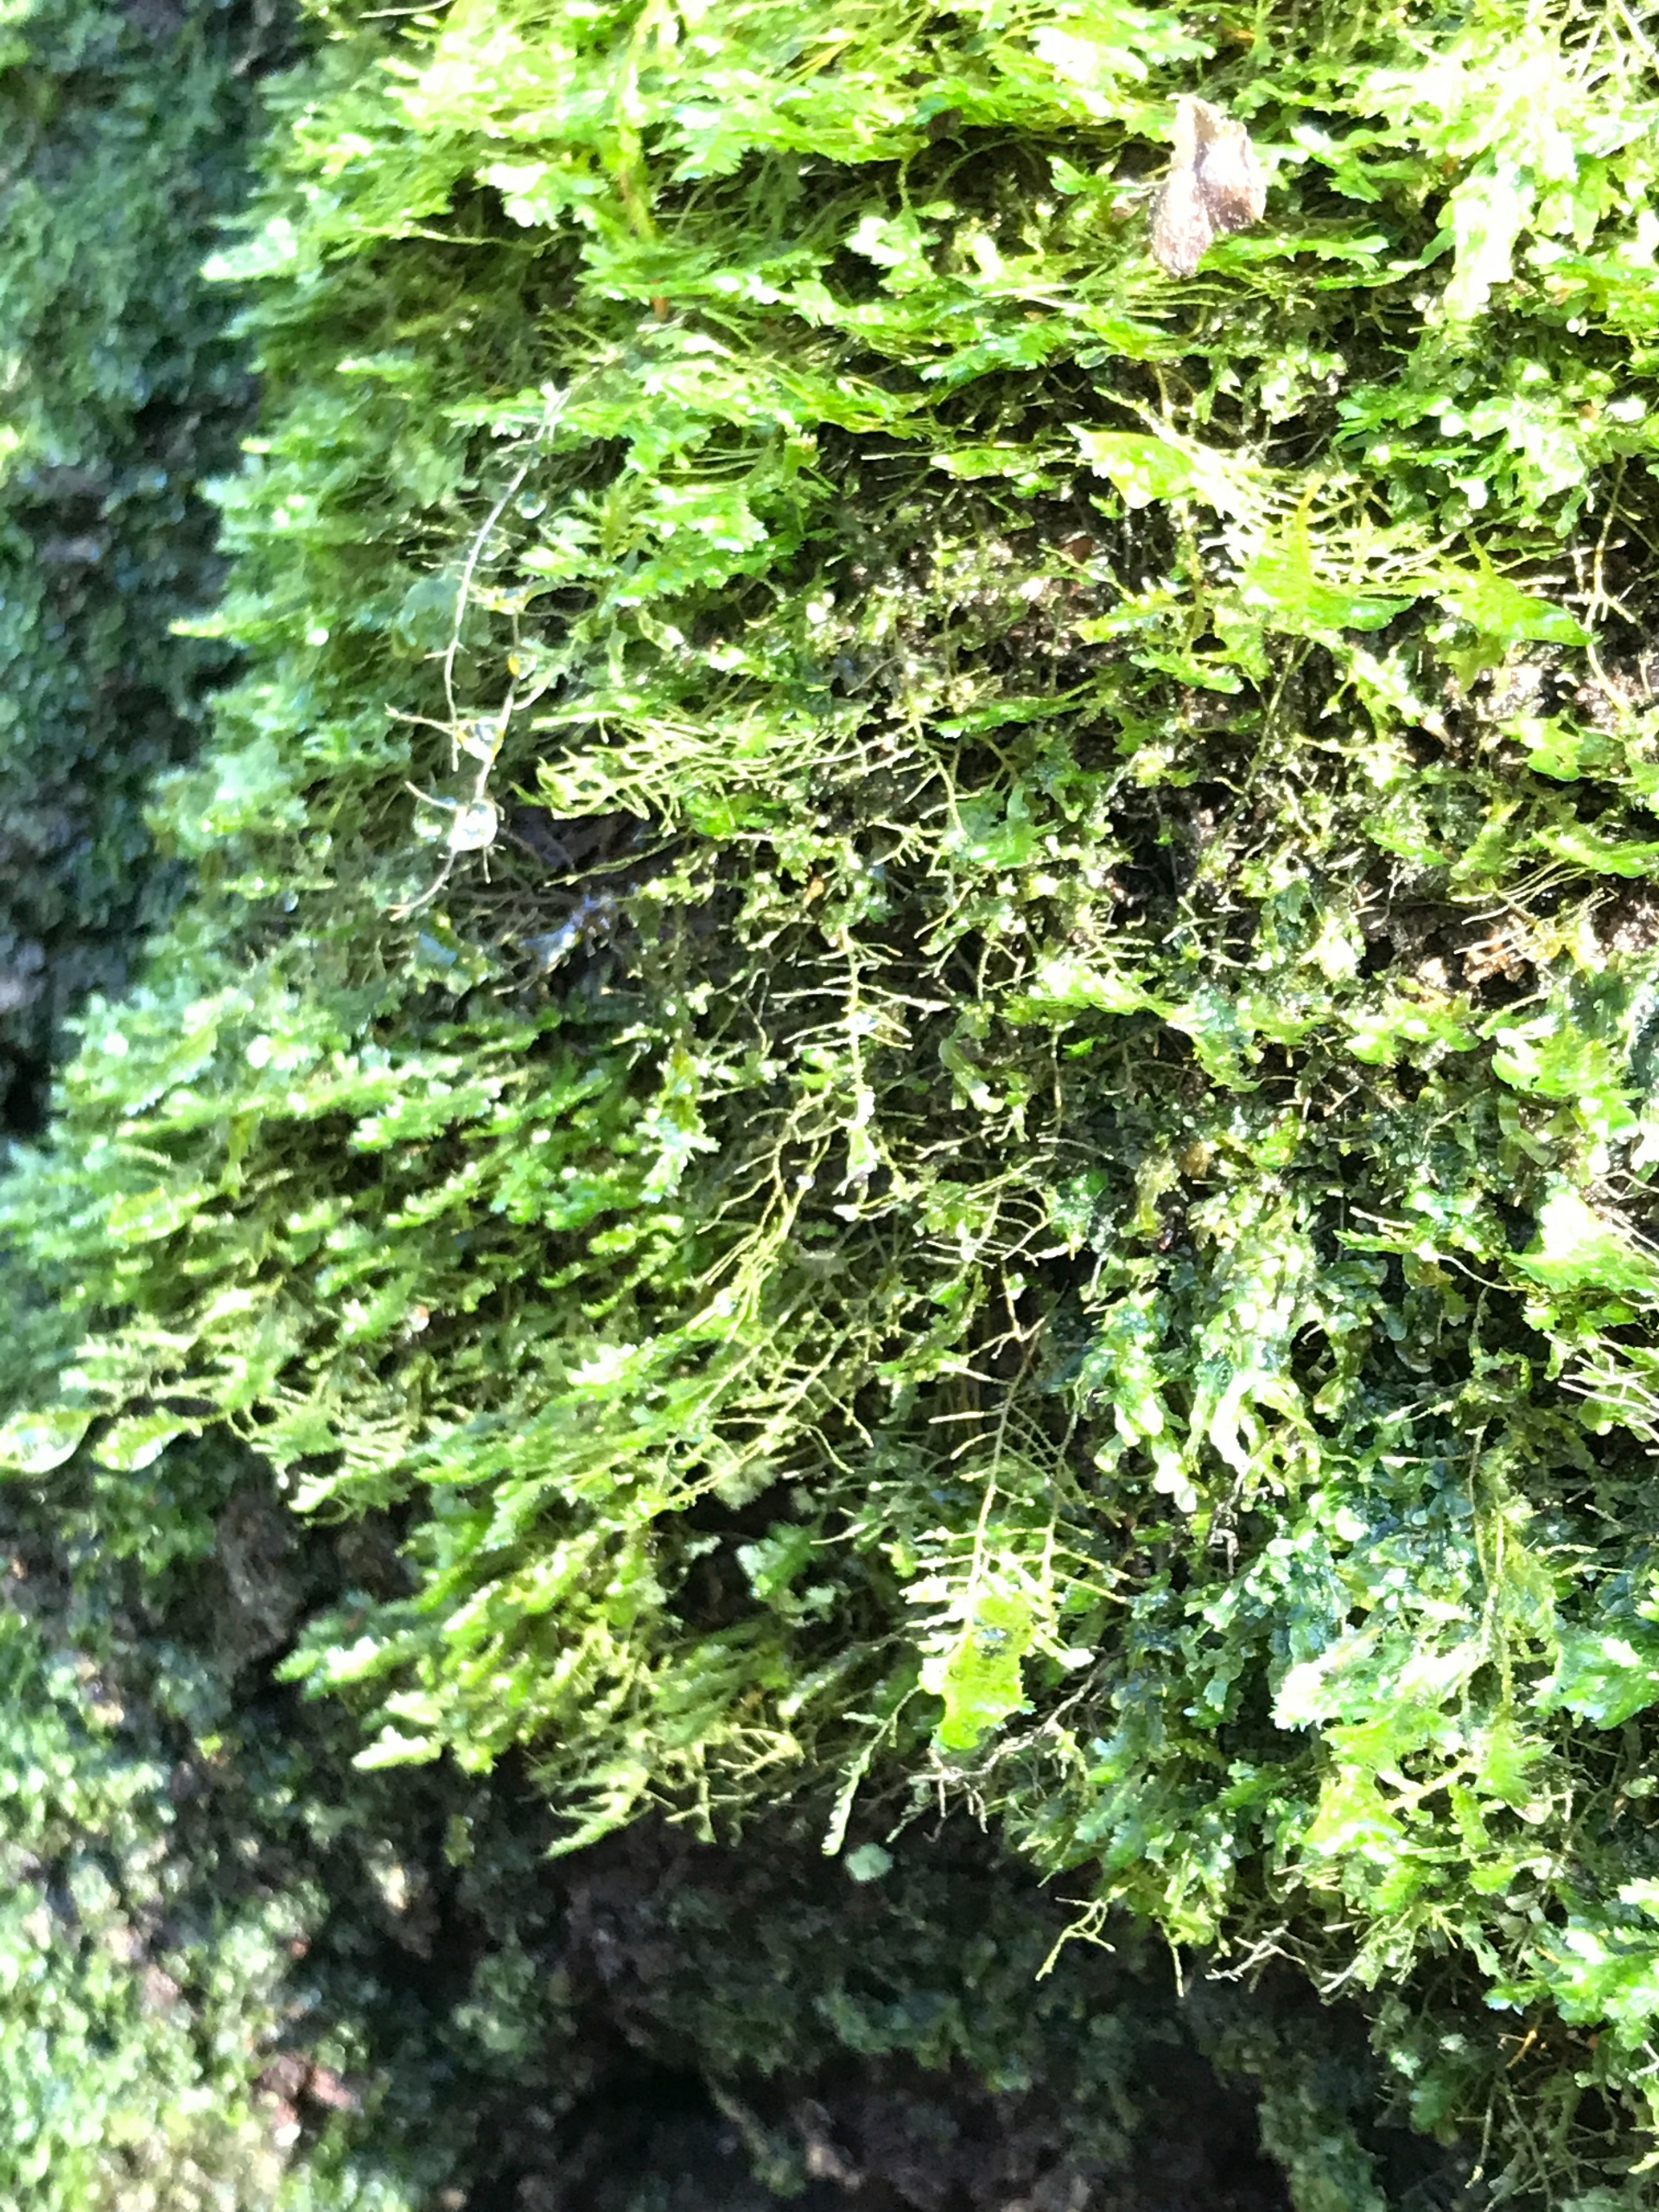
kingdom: Plantae
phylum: Bryophyta
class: Bryopsida
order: Hypnales
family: Neckeraceae
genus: Alleniella
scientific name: Alleniella complanata
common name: Almindelig fladmos
